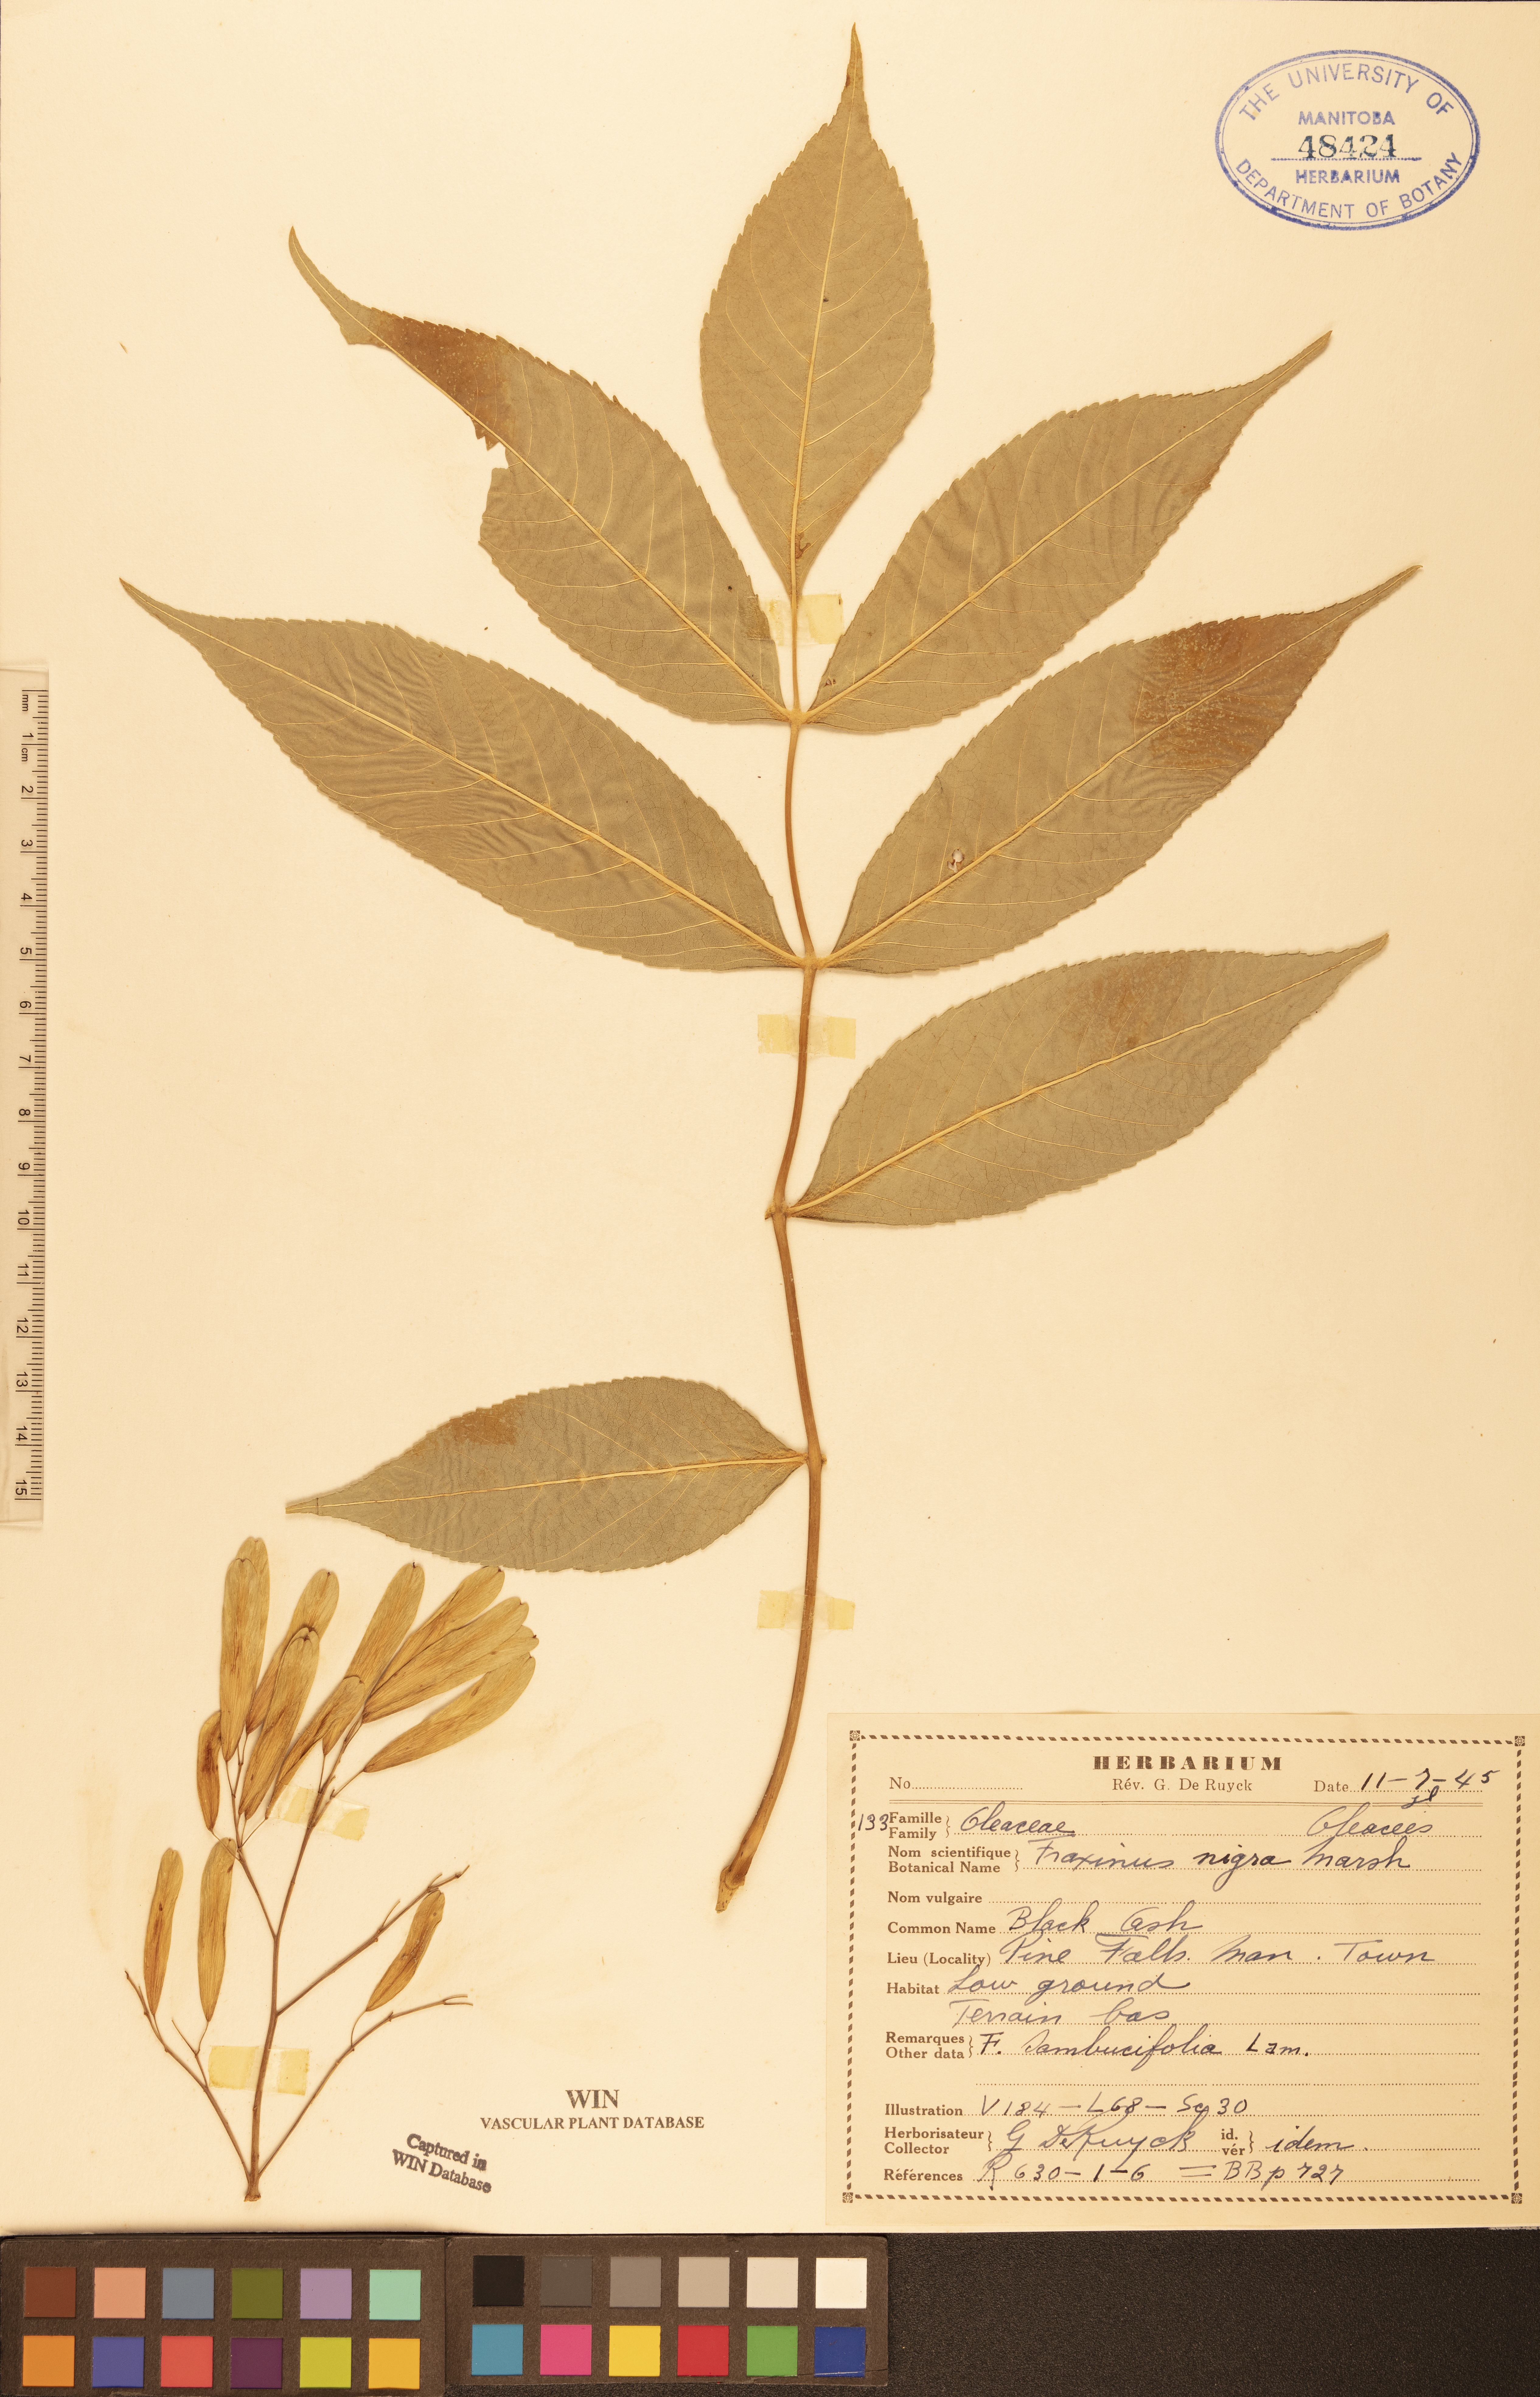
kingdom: Plantae
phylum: Tracheophyta
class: Magnoliopsida
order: Lamiales
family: Oleaceae
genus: Fraxinus
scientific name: Fraxinus nigra
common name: Black ash
